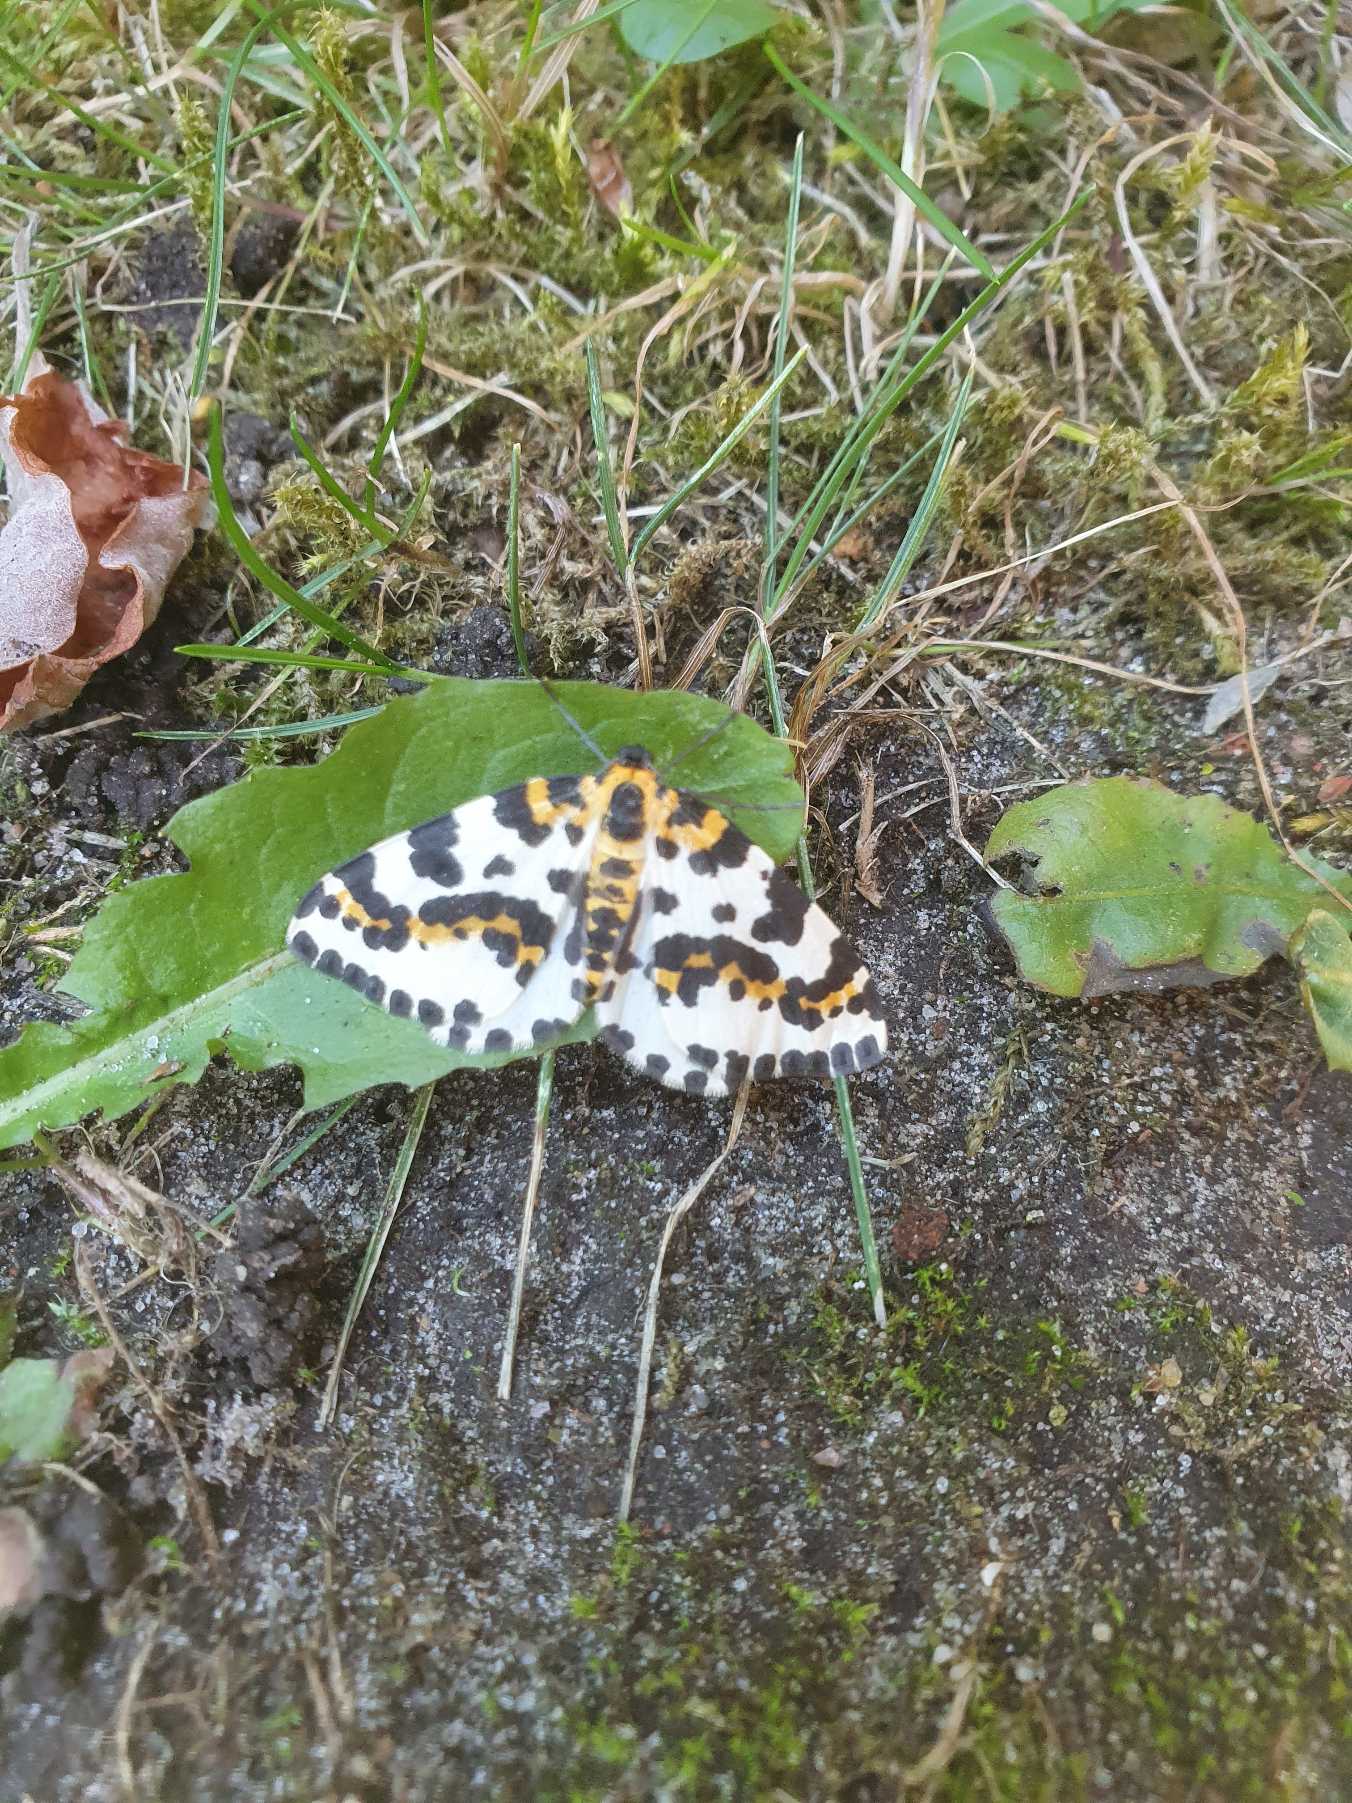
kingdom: Animalia
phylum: Arthropoda
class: Insecta
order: Lepidoptera
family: Geometridae
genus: Abraxas
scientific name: Abraxas grossulariata
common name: Harlekin
